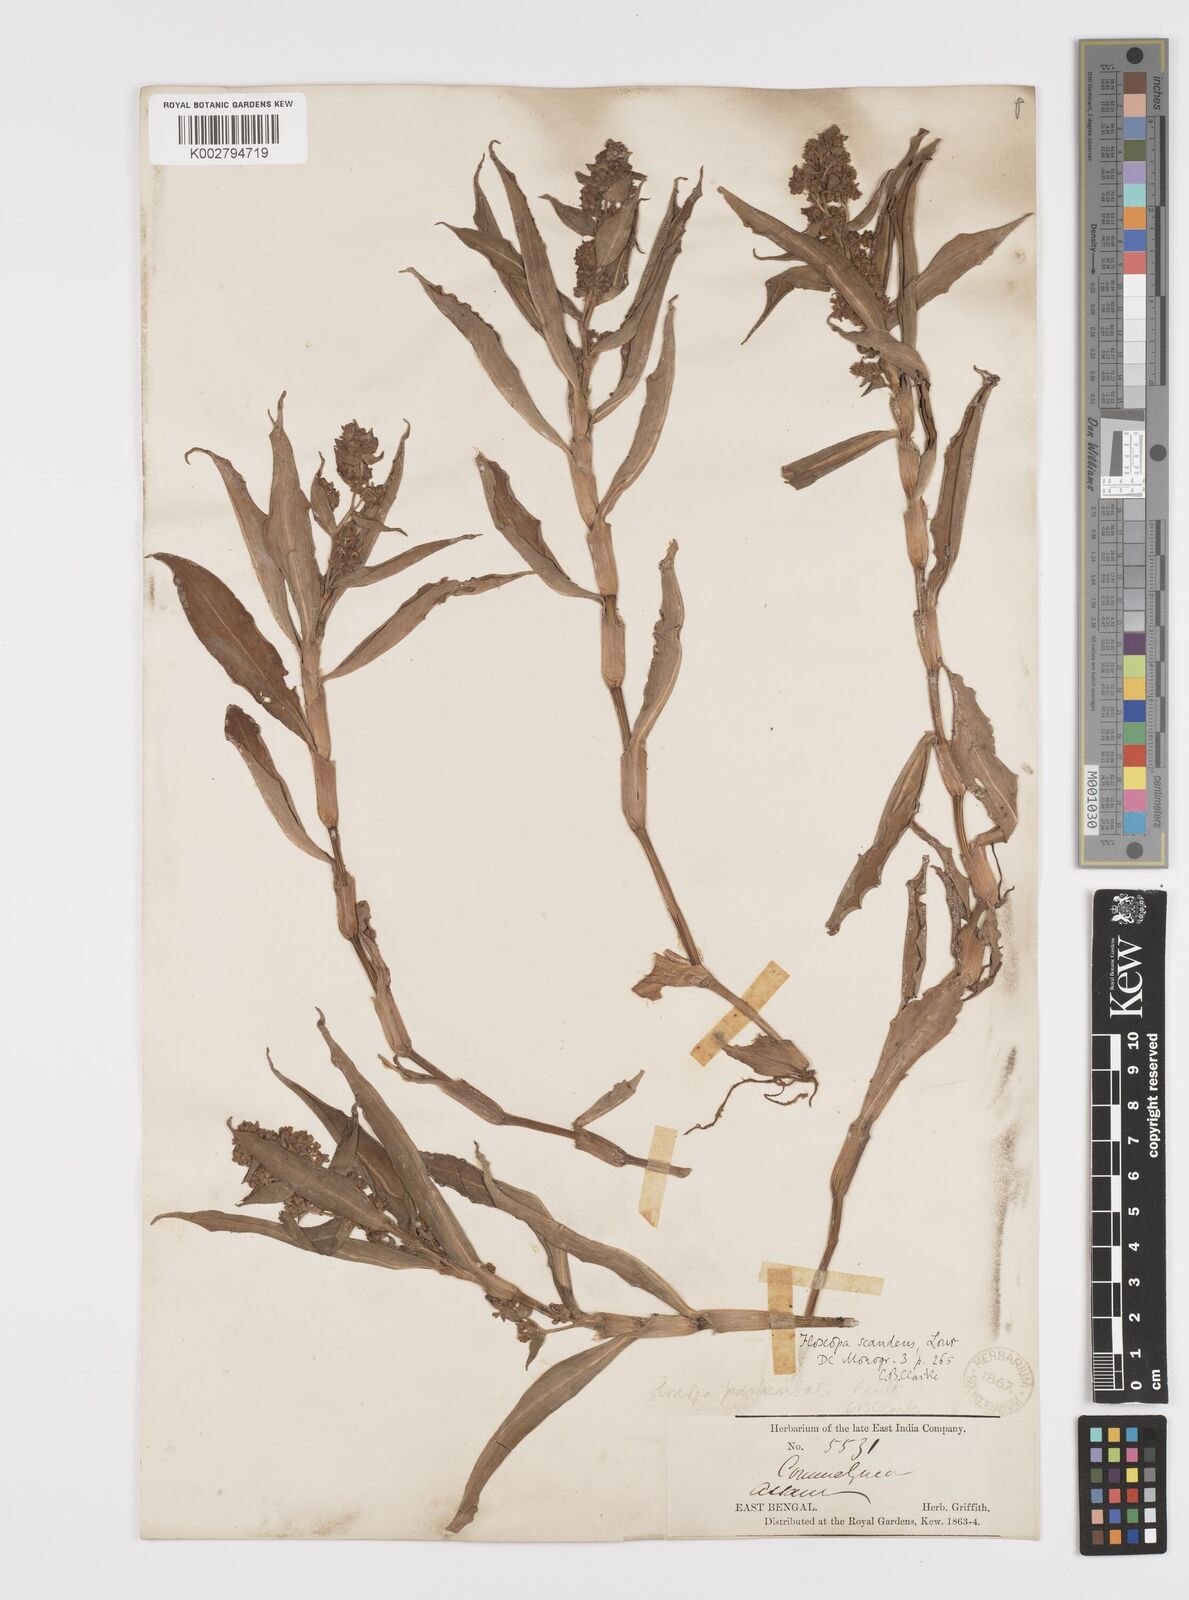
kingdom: Plantae
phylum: Tracheophyta
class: Liliopsida
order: Commelinales
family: Commelinaceae
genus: Floscopa
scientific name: Floscopa scandens
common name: Climbing flower cup
